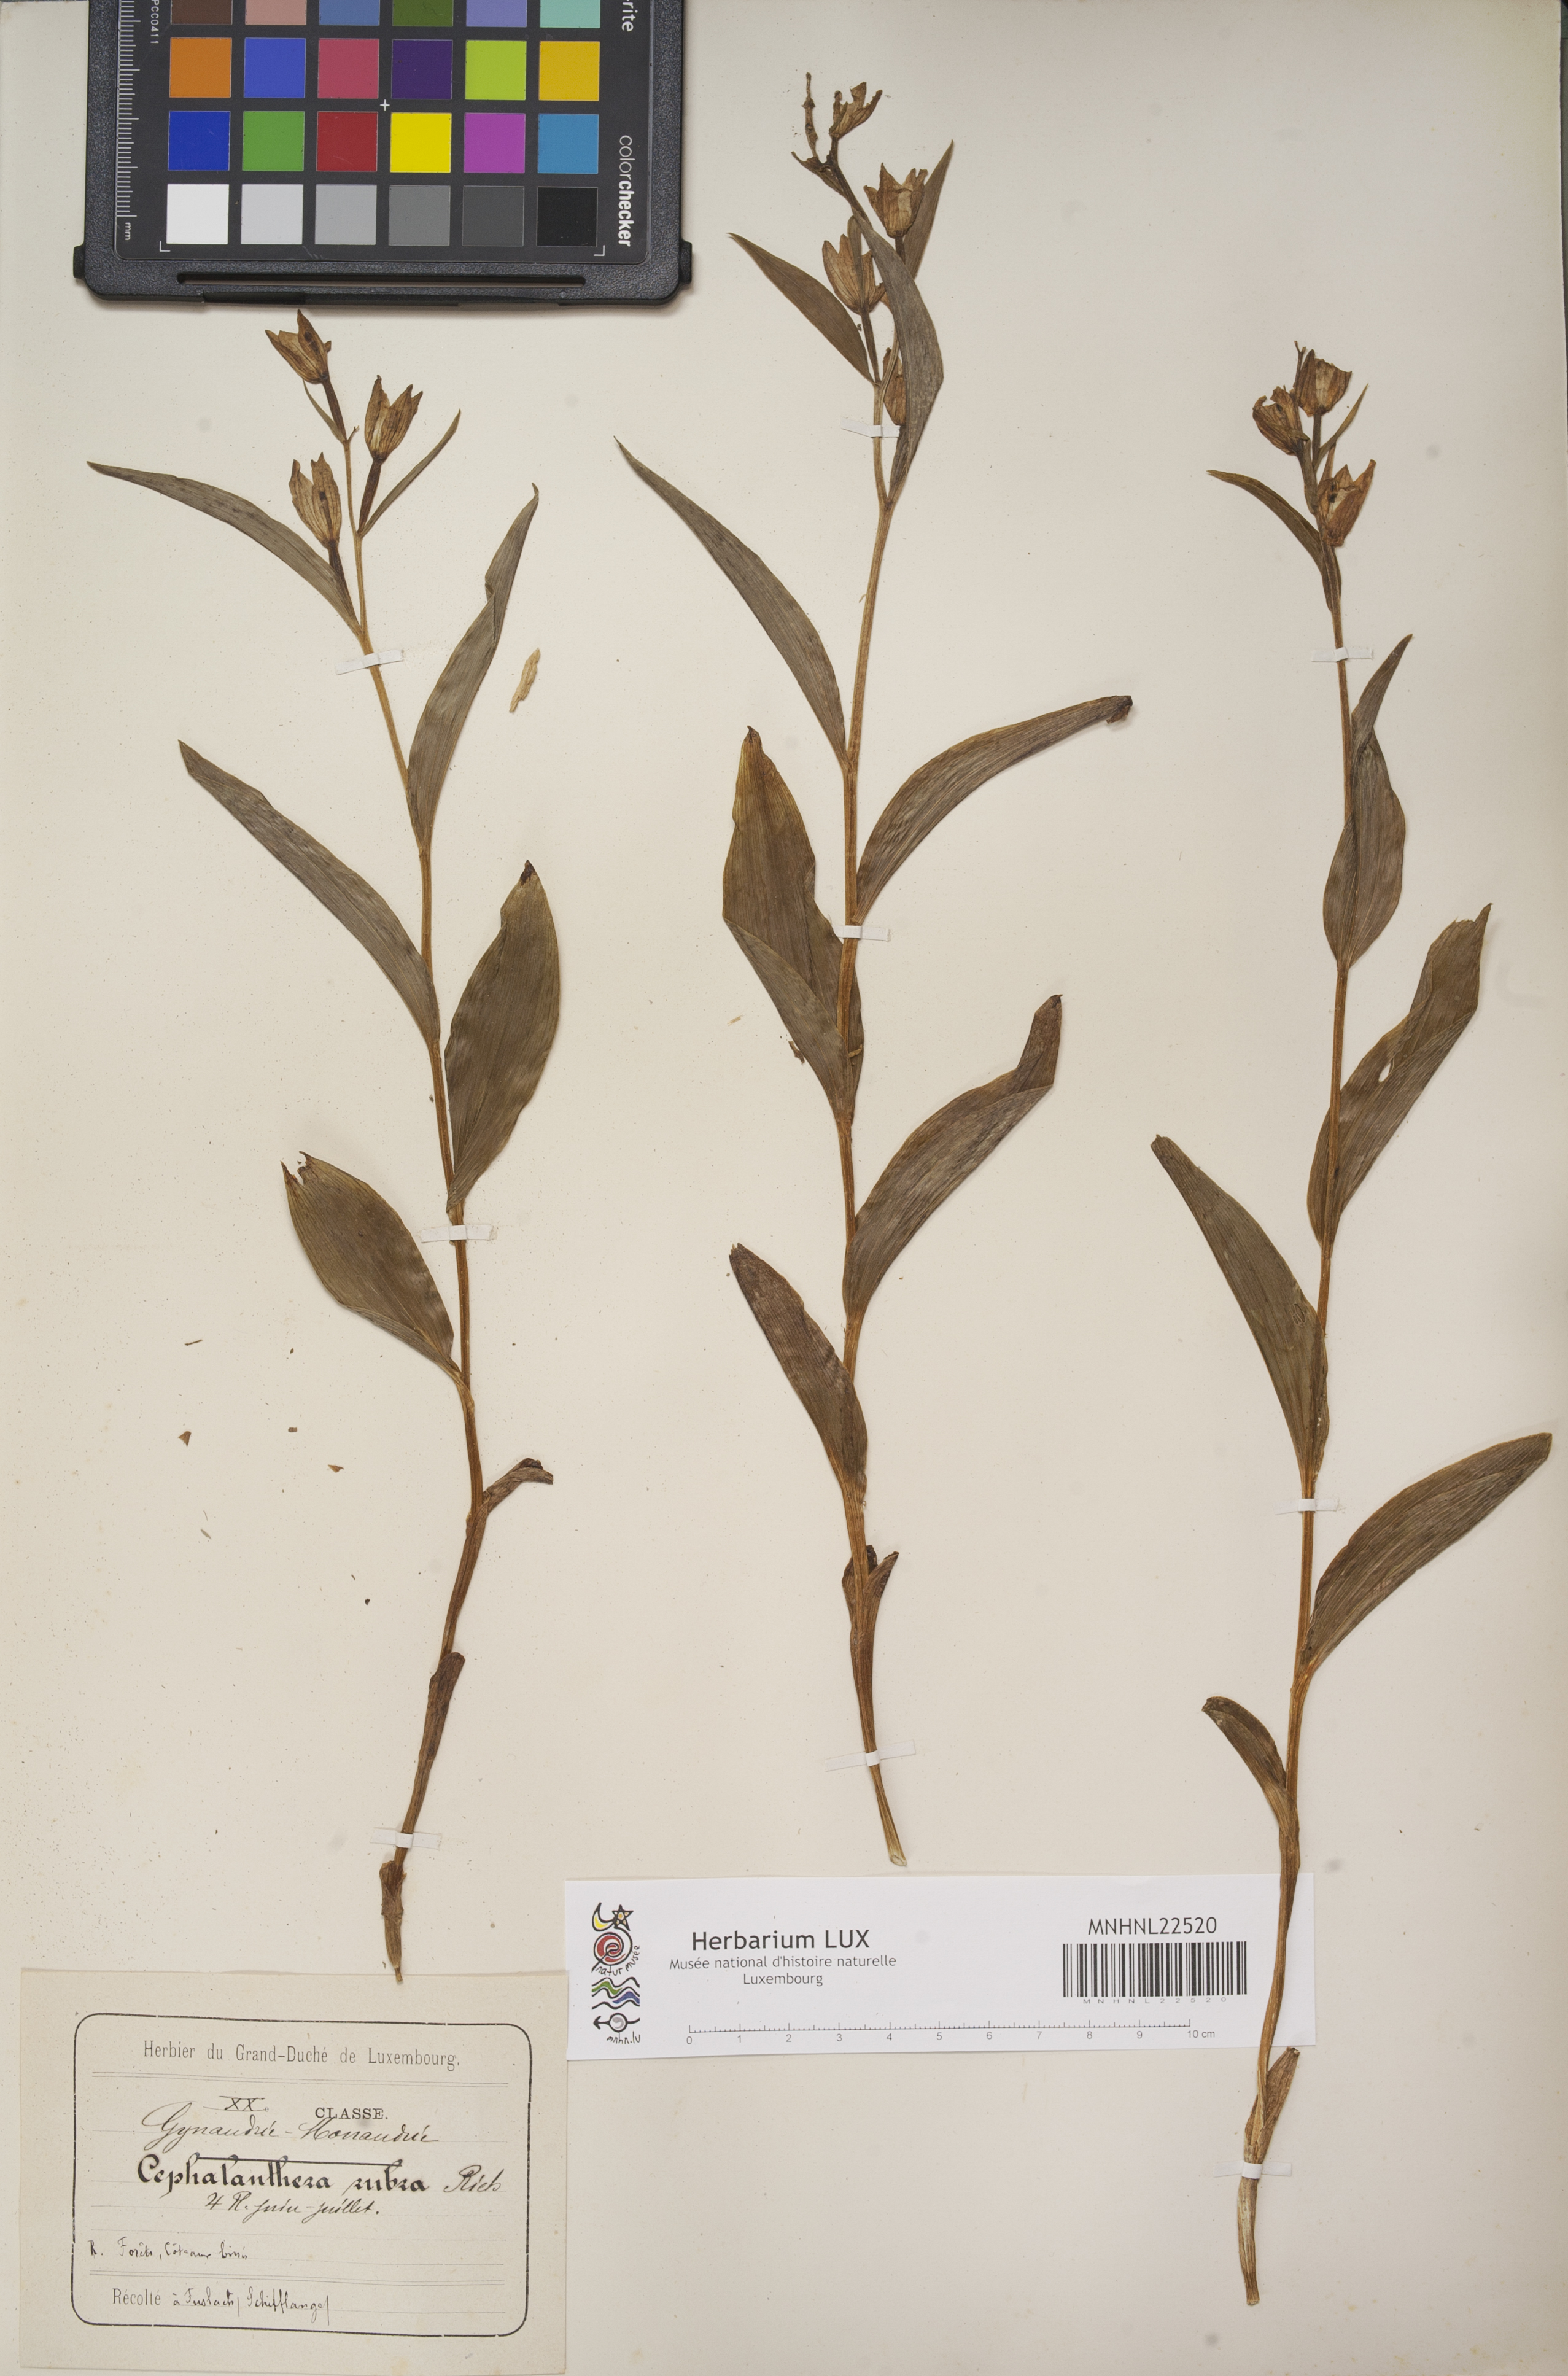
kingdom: Plantae
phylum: Tracheophyta
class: Liliopsida
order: Asparagales
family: Orchidaceae
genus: Cephalanthera
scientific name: Cephalanthera rubra
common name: Red helleborine
